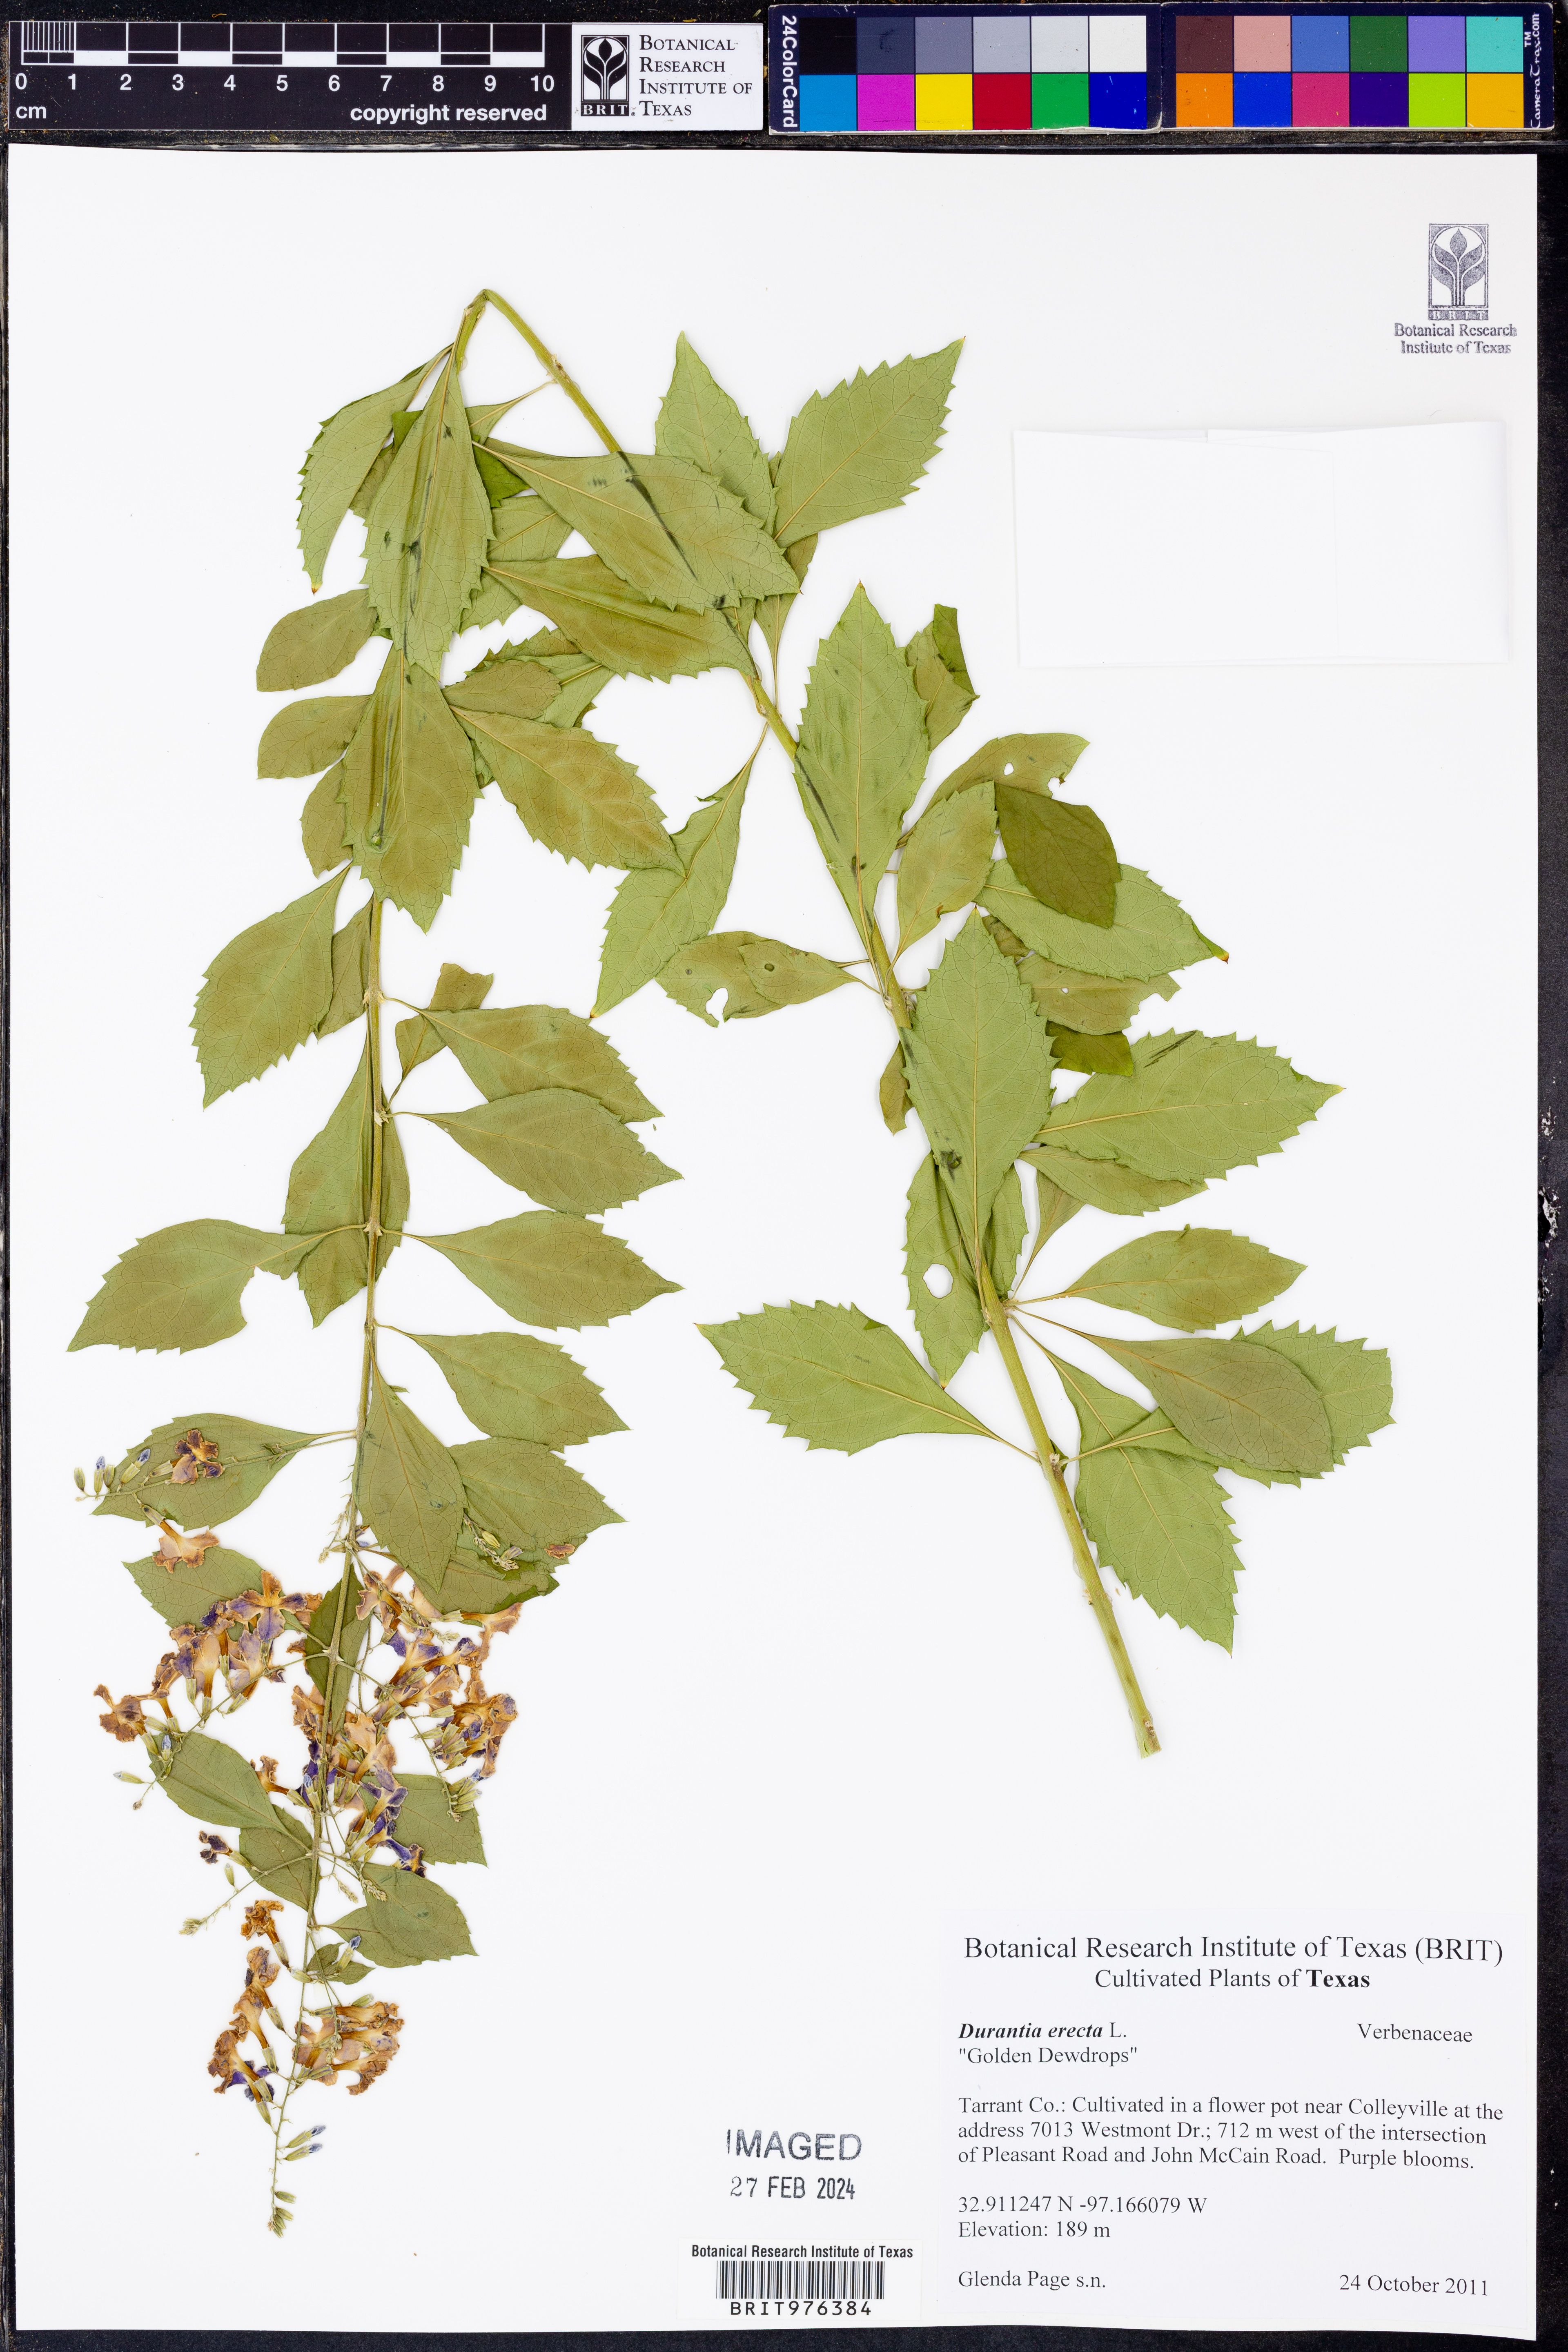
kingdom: Plantae
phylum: Tracheophyta
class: Magnoliopsida
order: Lamiales
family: Verbenaceae
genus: Duranta
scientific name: Duranta
